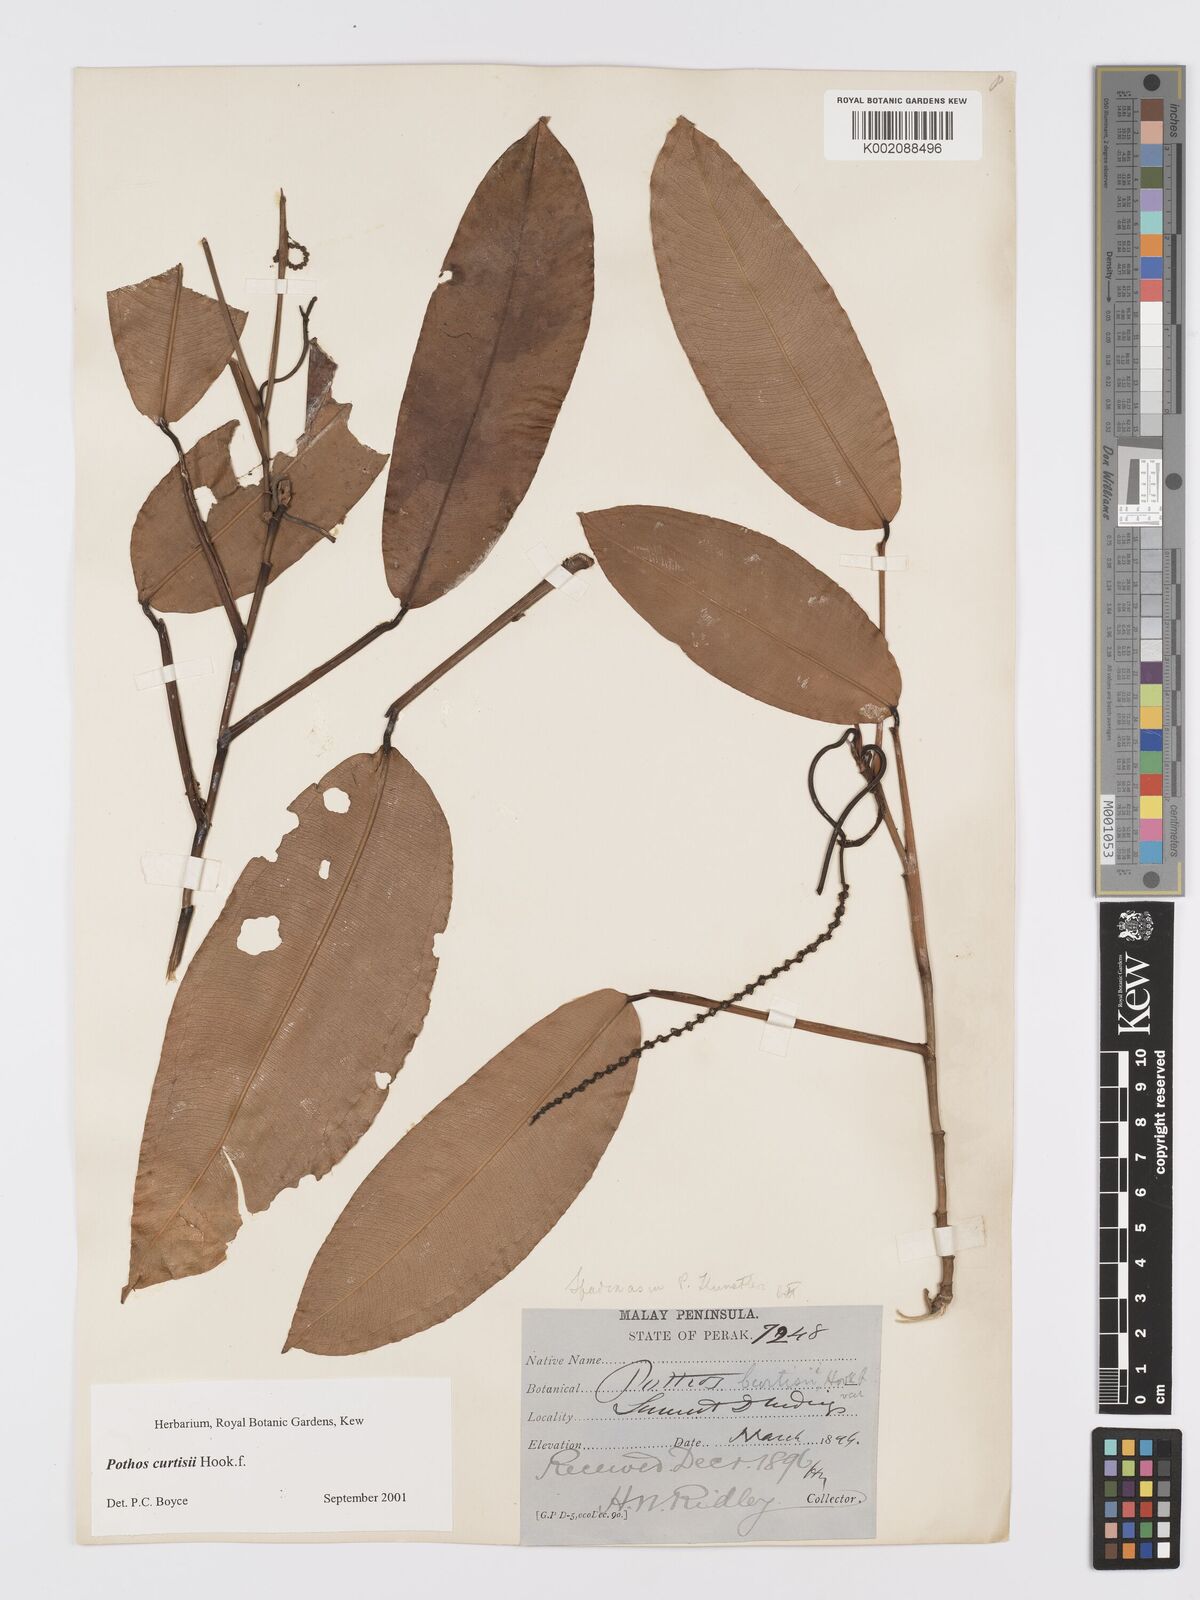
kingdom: Plantae
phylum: Tracheophyta
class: Liliopsida
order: Alismatales
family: Araceae
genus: Pothos
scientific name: Pothos curtisii
